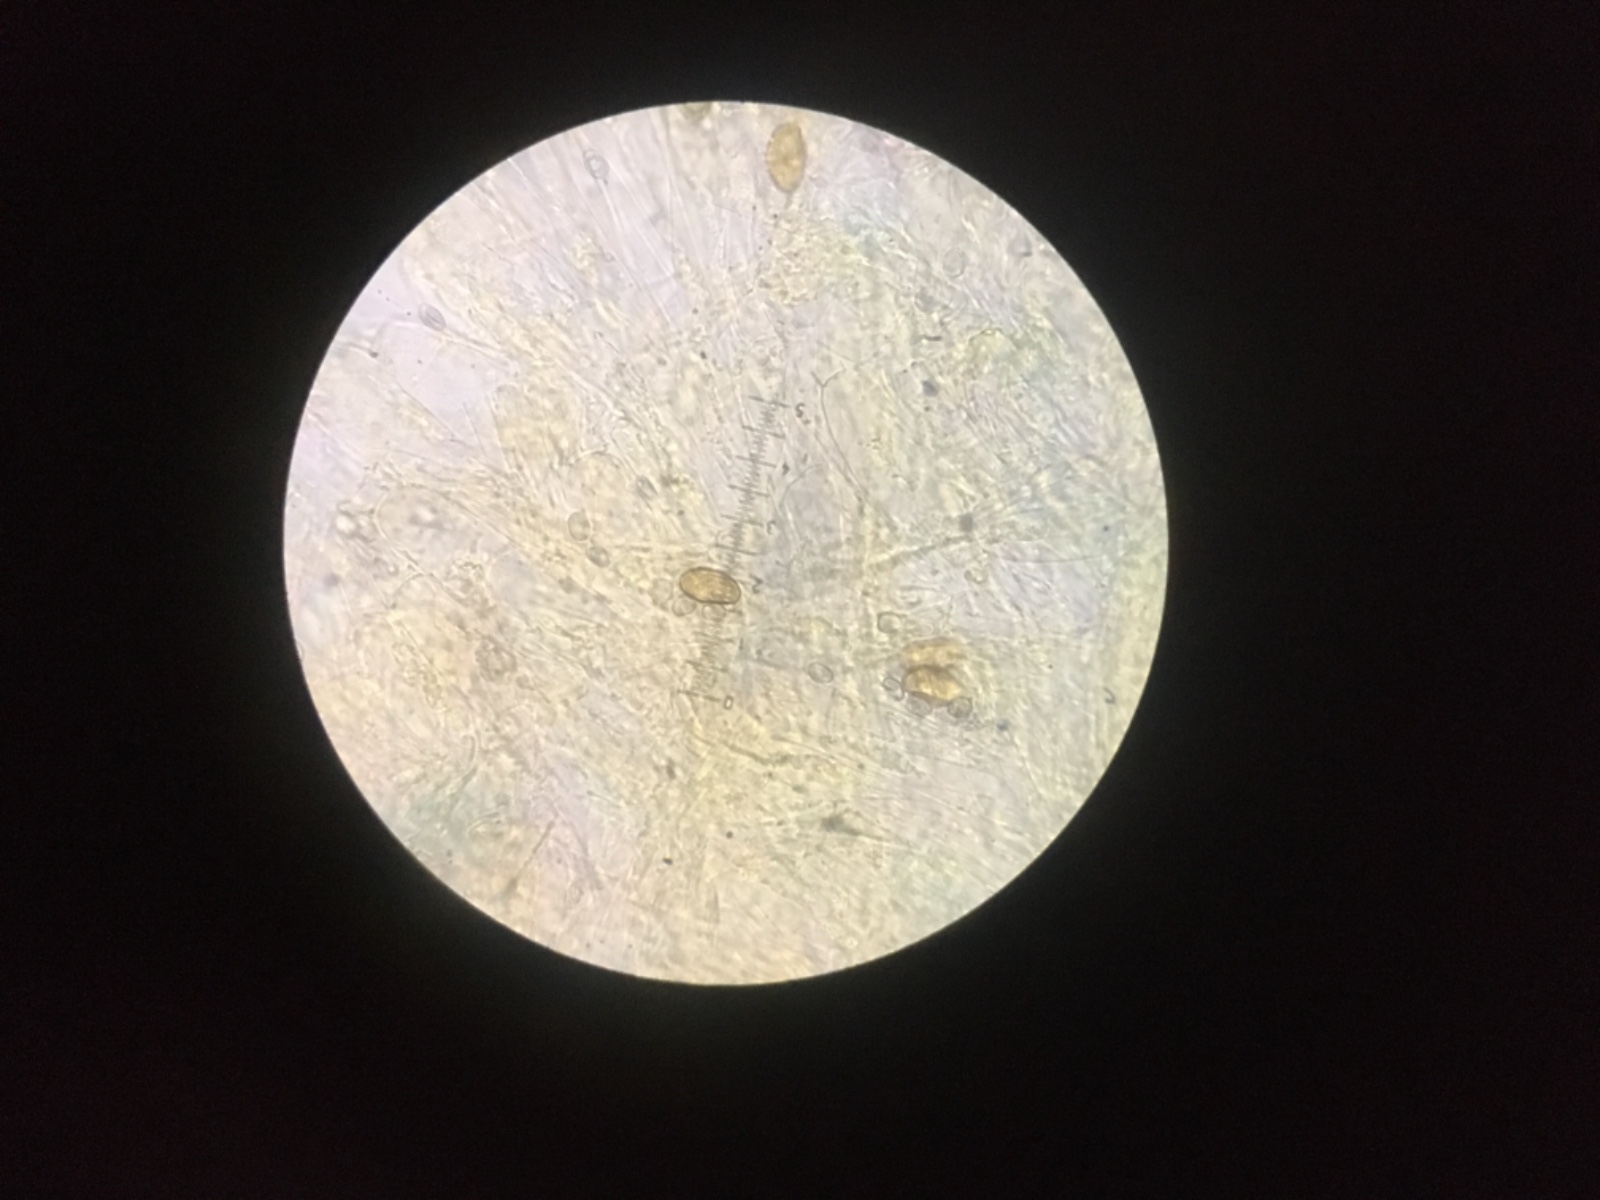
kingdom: Fungi
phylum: Basidiomycota
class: Agaricomycetes
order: Agaricales
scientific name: Agaricales
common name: champignonordenen
